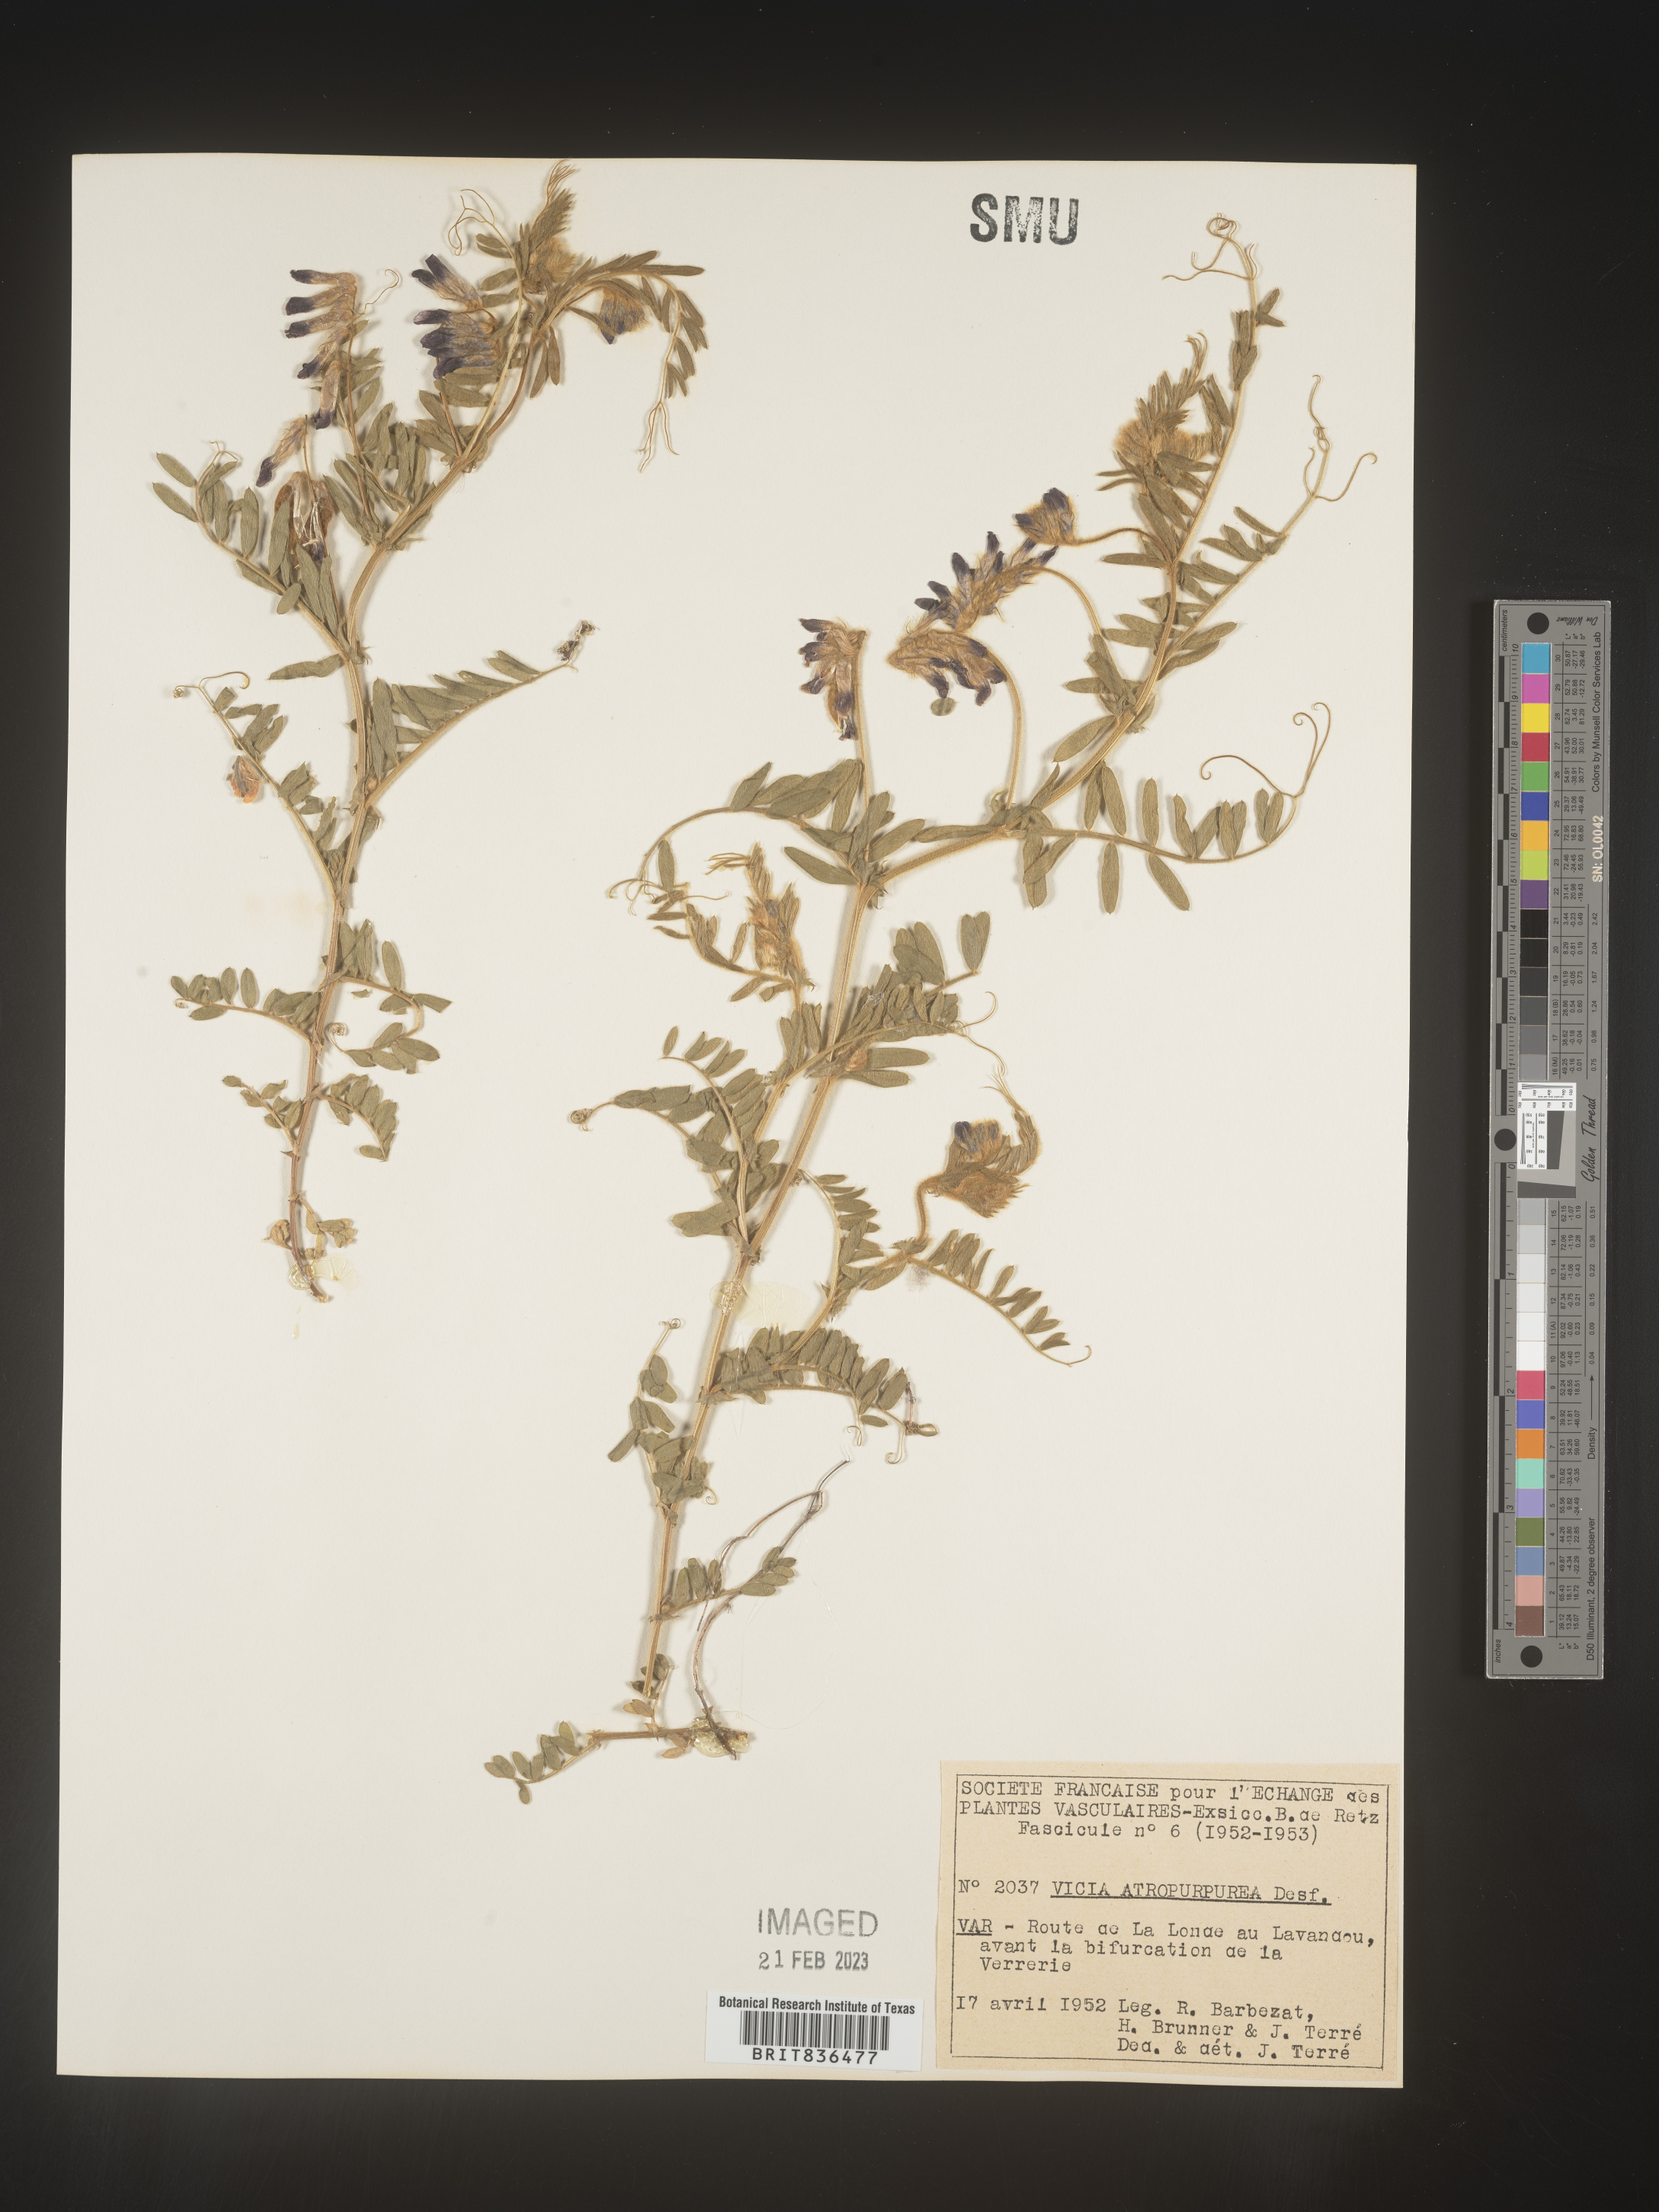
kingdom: Plantae
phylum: Tracheophyta
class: Magnoliopsida
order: Fabales
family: Fabaceae
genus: Vicia
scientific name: Vicia
